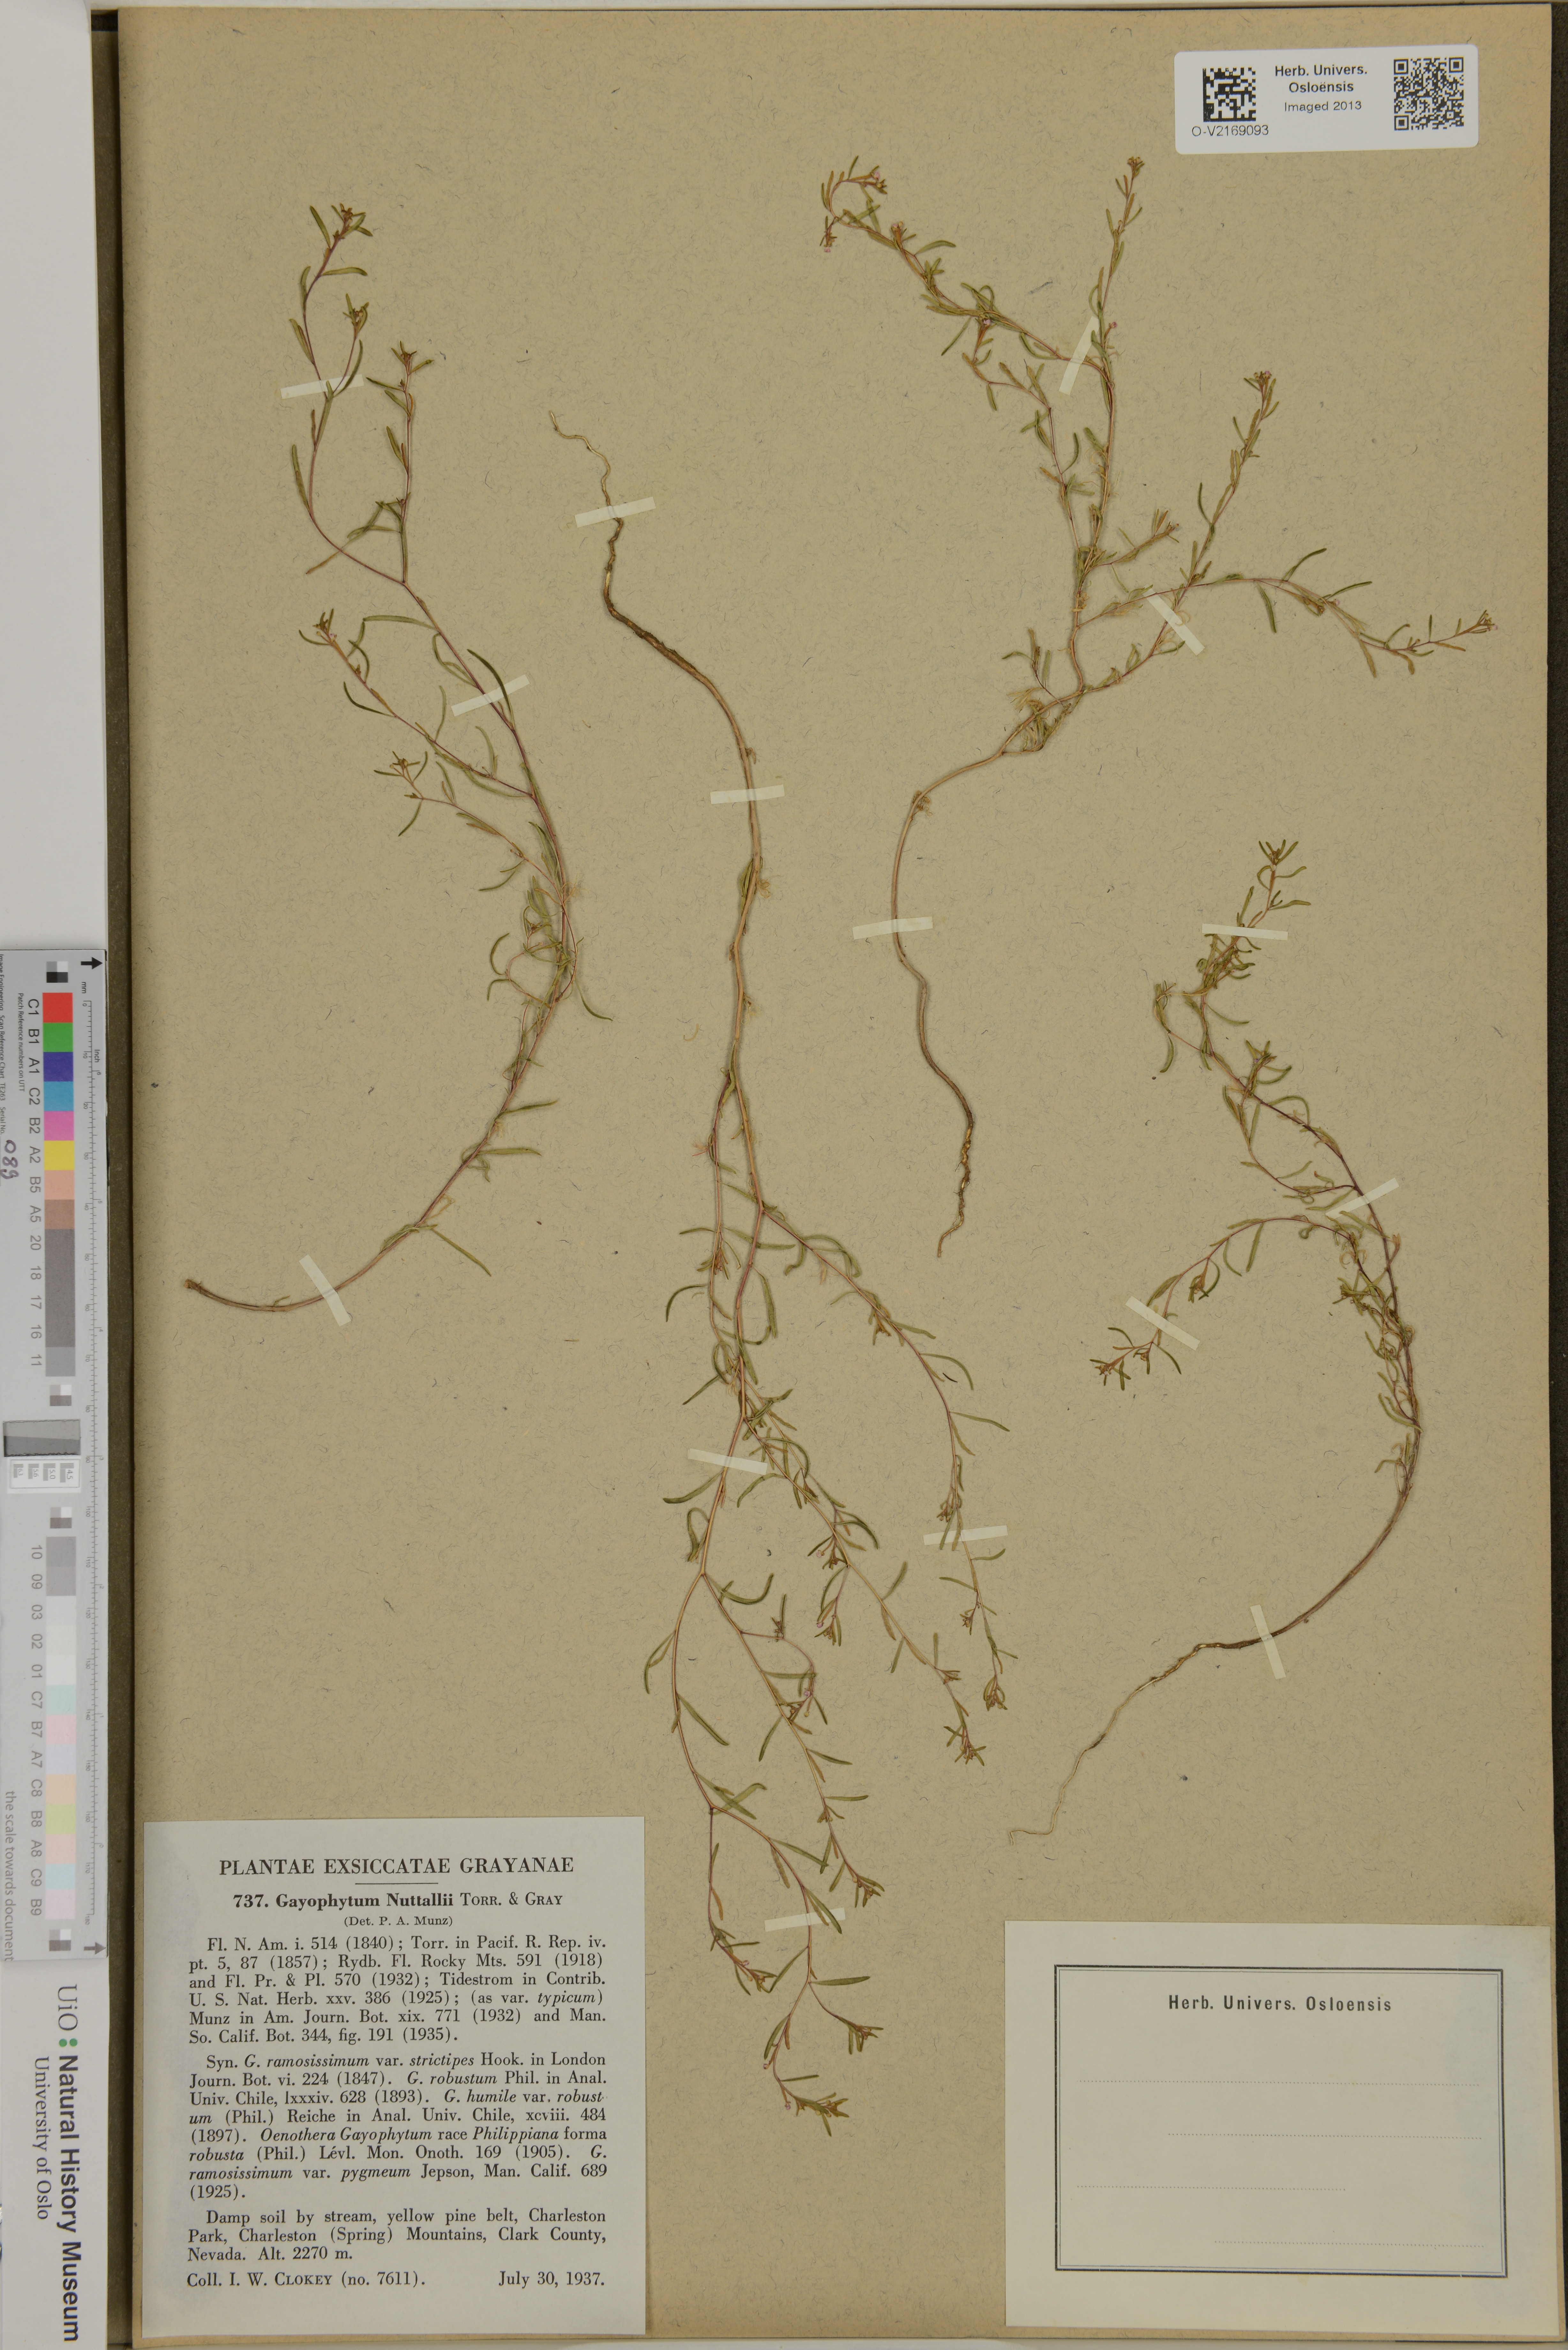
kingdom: Plantae
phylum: Tracheophyta
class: Magnoliopsida
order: Myrtales
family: Onagraceae
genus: Gayophytum
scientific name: Gayophytum humile
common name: Dwarf groundsmoke
